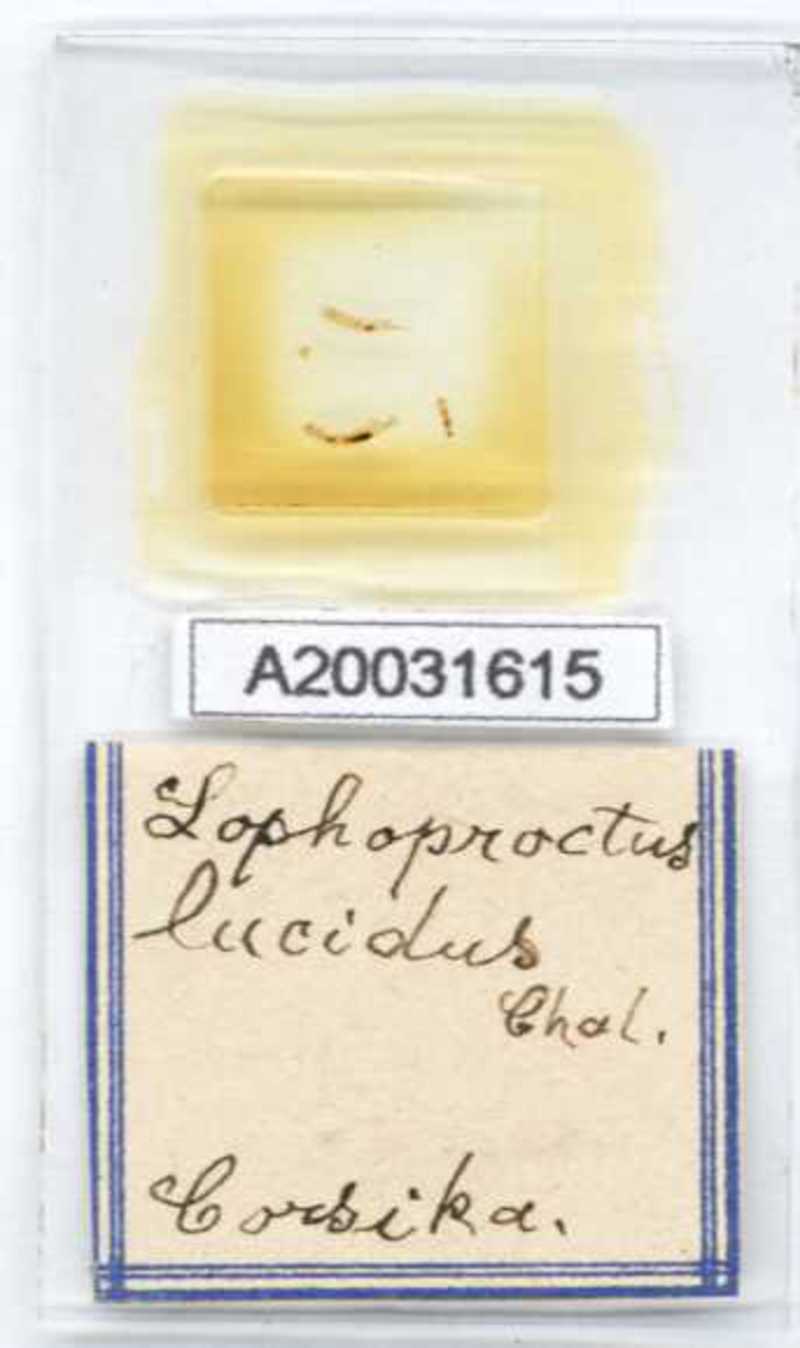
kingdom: Animalia
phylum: Arthropoda
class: Diplopoda
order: Polyxenida
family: Lophoproctidae
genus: Lophoproctus
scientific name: Lophoproctus lucidus
